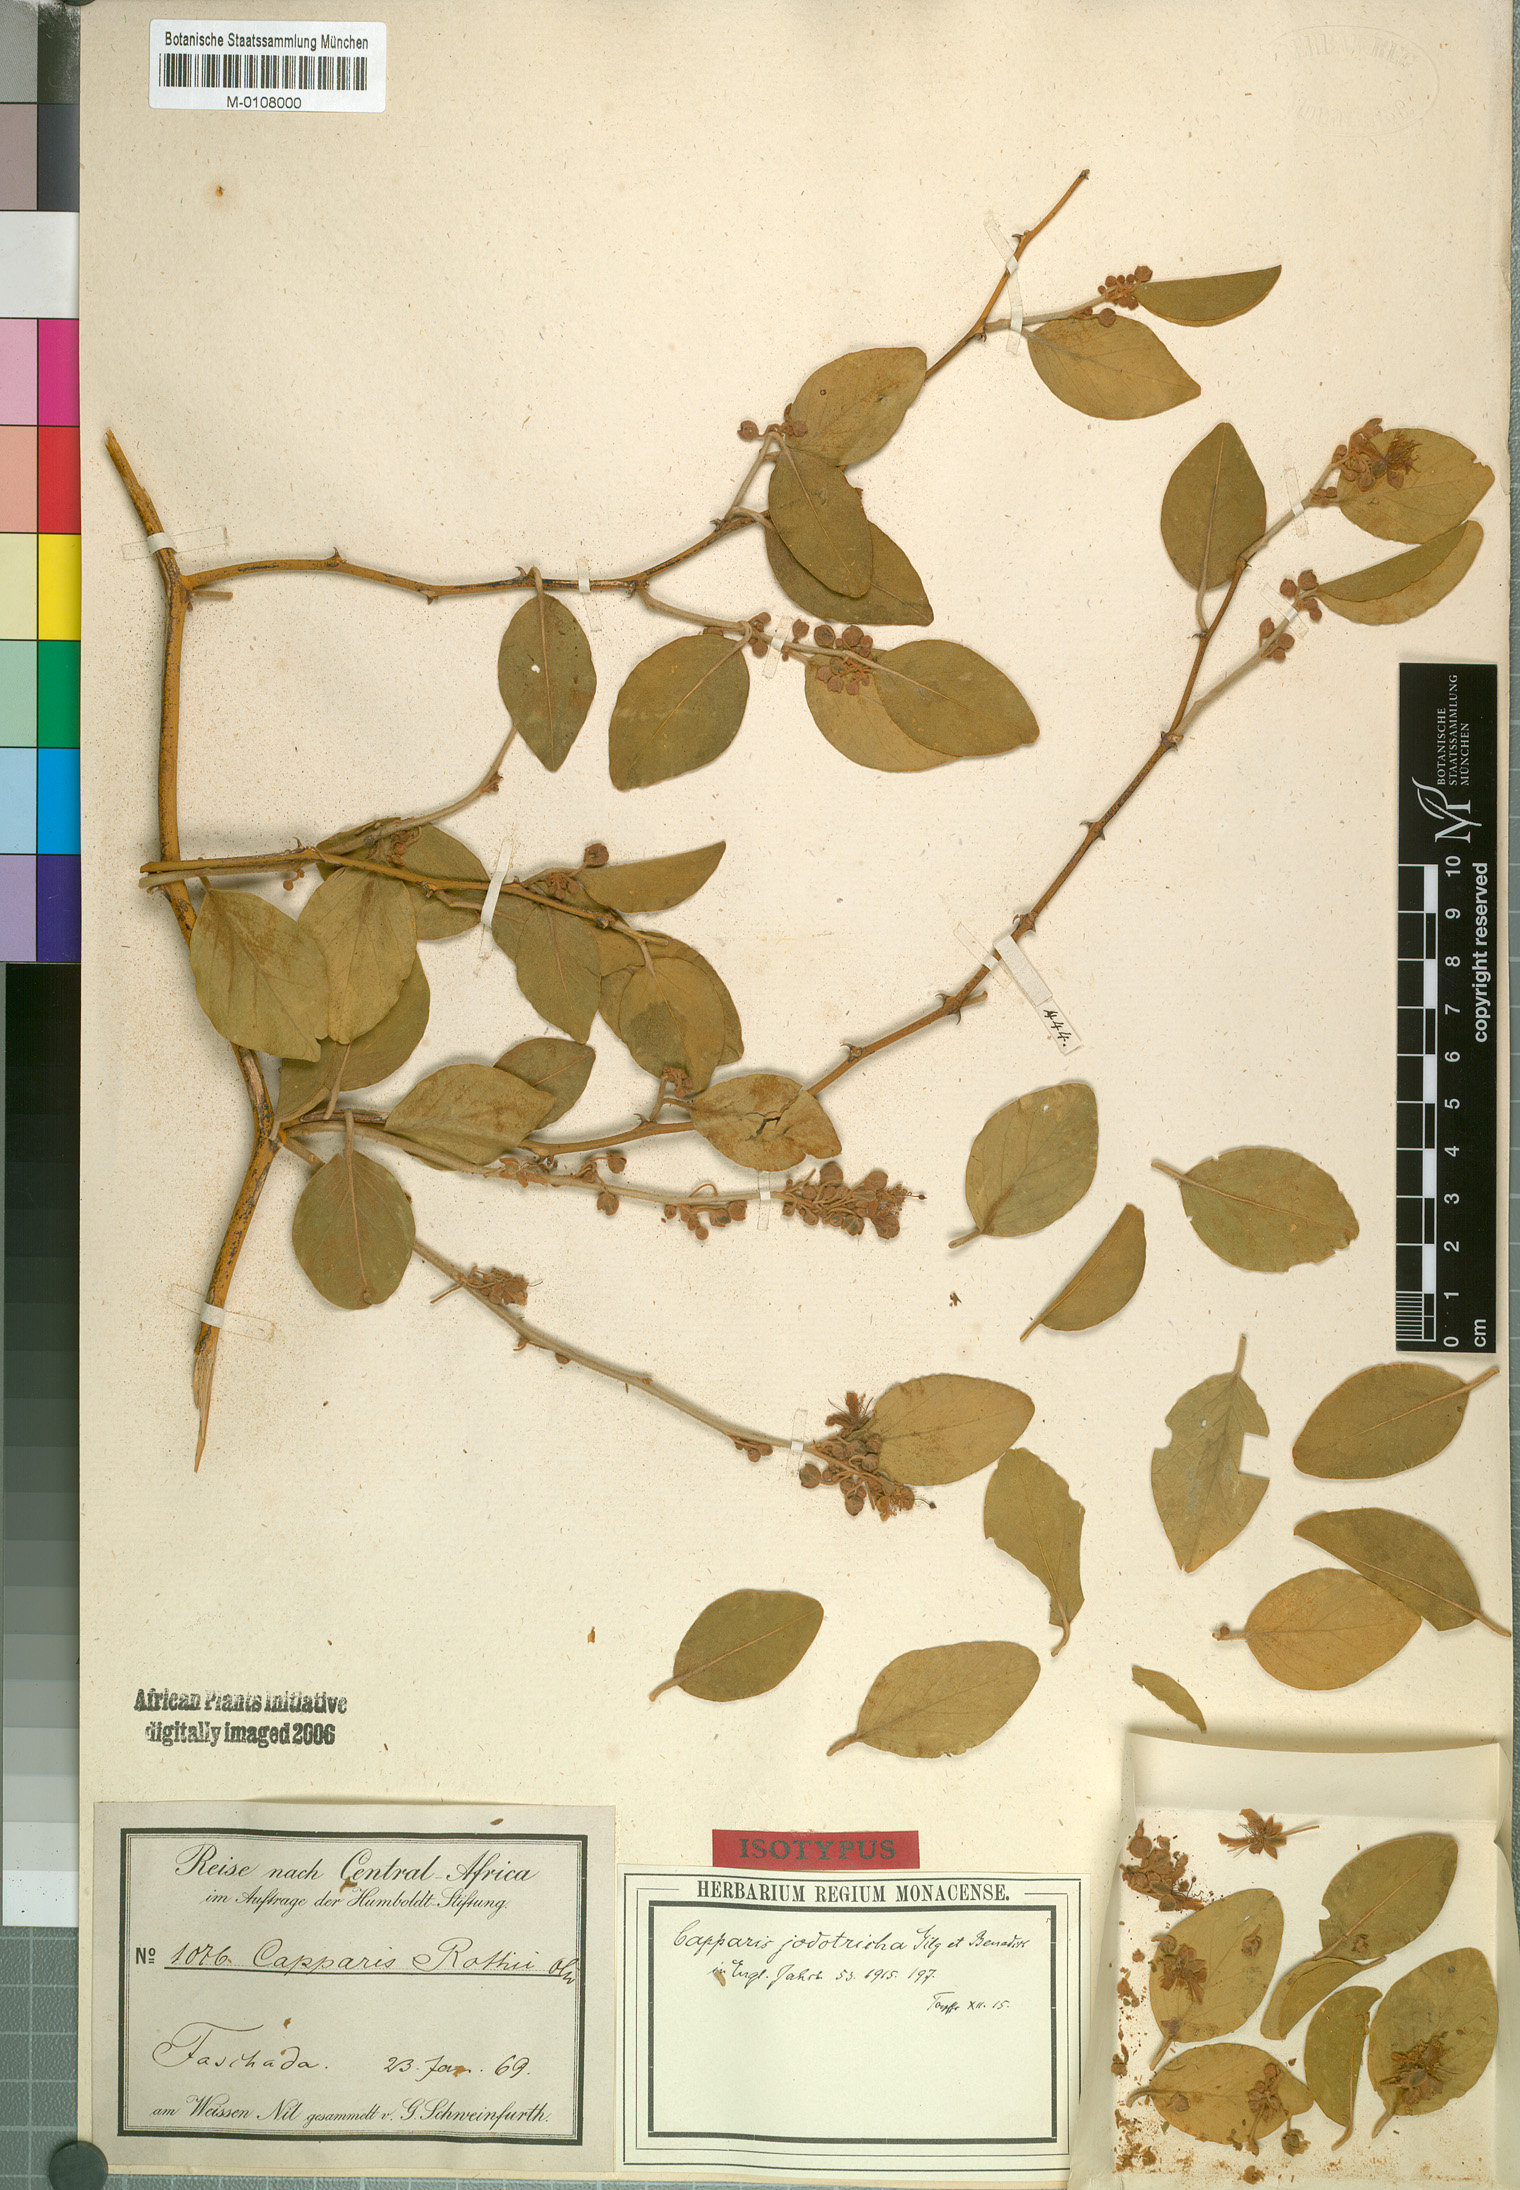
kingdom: Plantae
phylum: Tracheophyta
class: Magnoliopsida
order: Brassicales
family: Capparaceae
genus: Capparis
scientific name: Capparis fascicularis
